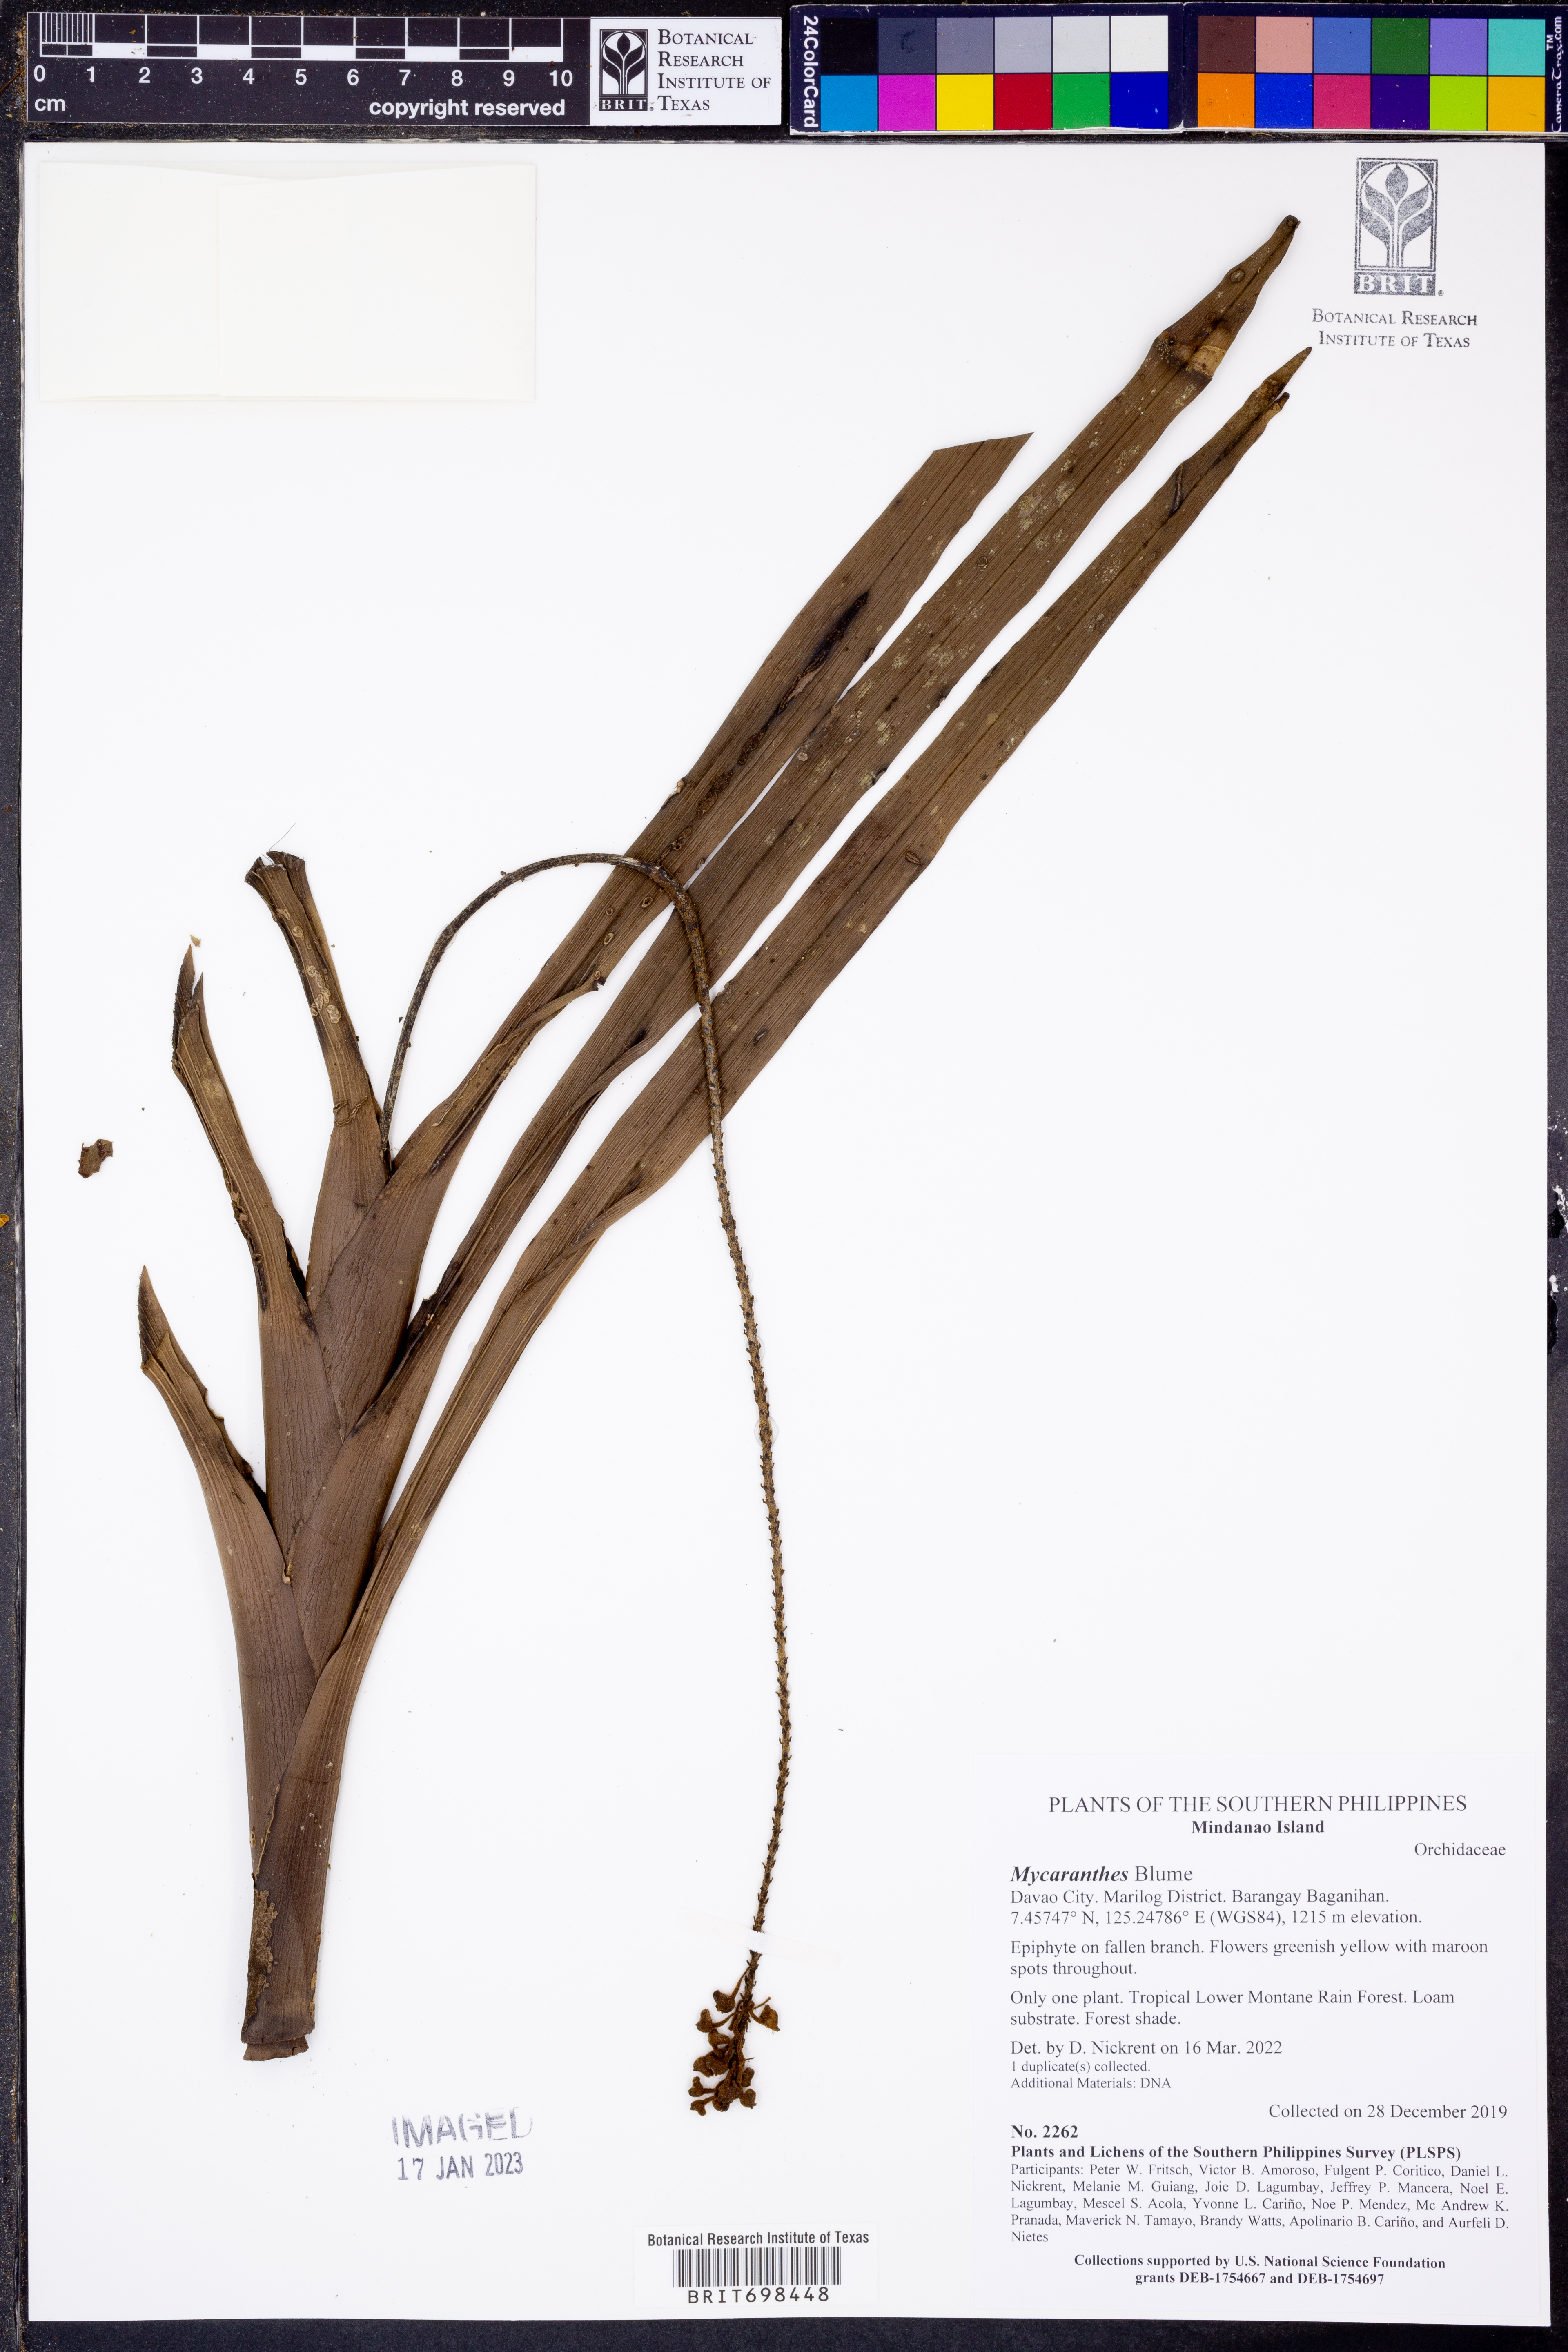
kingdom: Plantae
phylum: Tracheophyta
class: Liliopsida
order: Asparagales
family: Orchidaceae
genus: Mycaranthes
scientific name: Mycaranthes
